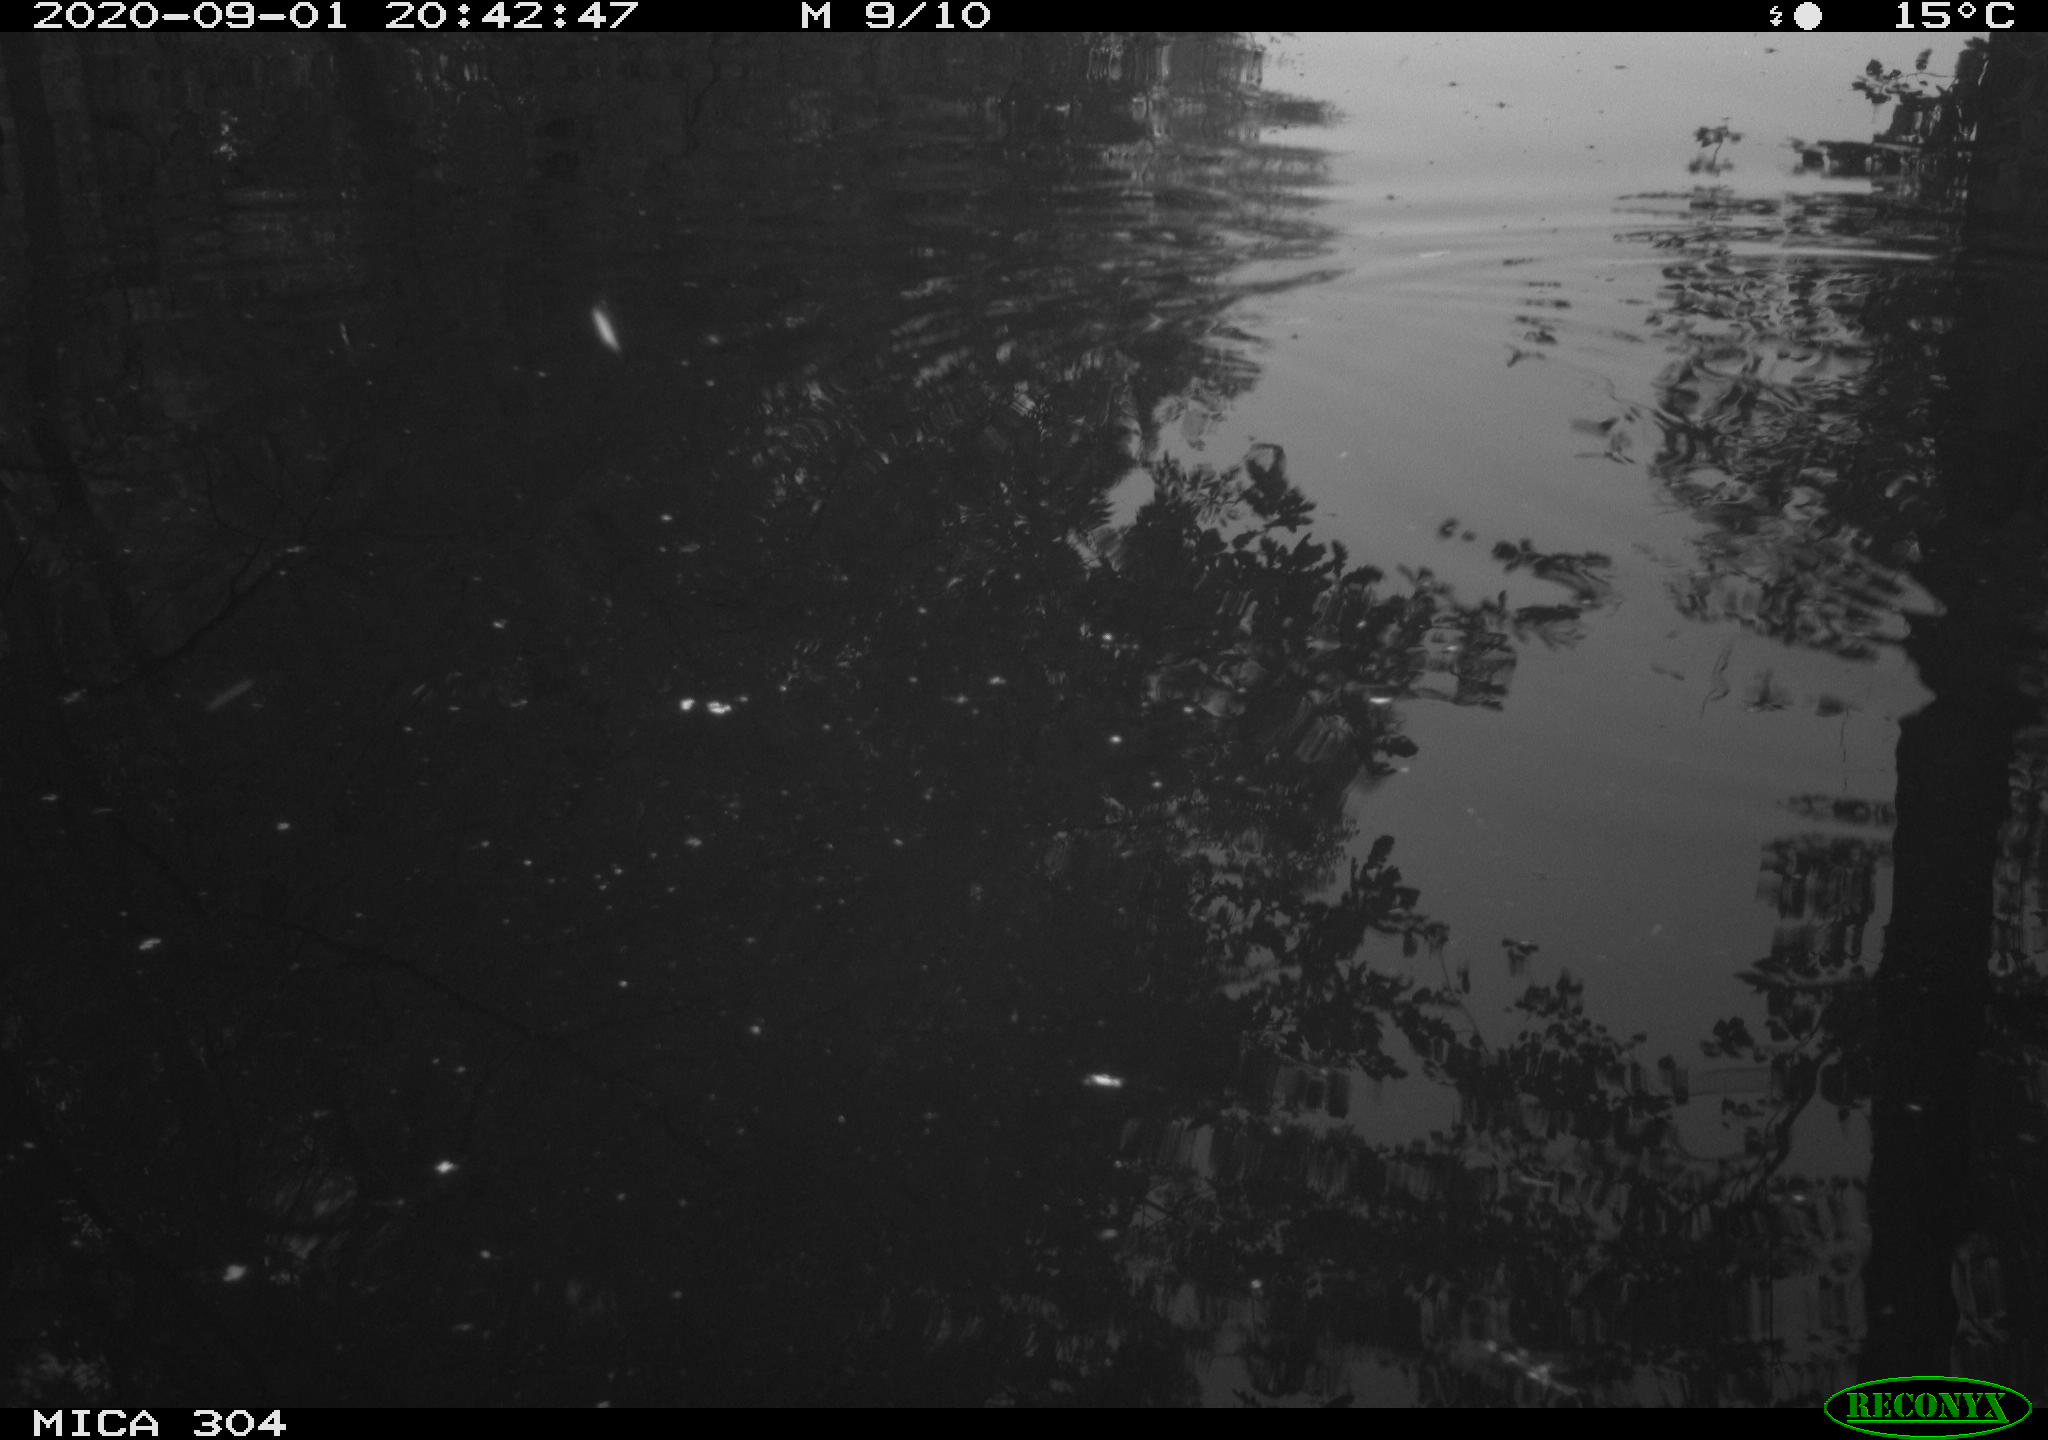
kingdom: Animalia
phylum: Chordata
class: Aves
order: Gruiformes
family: Rallidae
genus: Gallinula
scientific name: Gallinula chloropus
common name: Common moorhen
